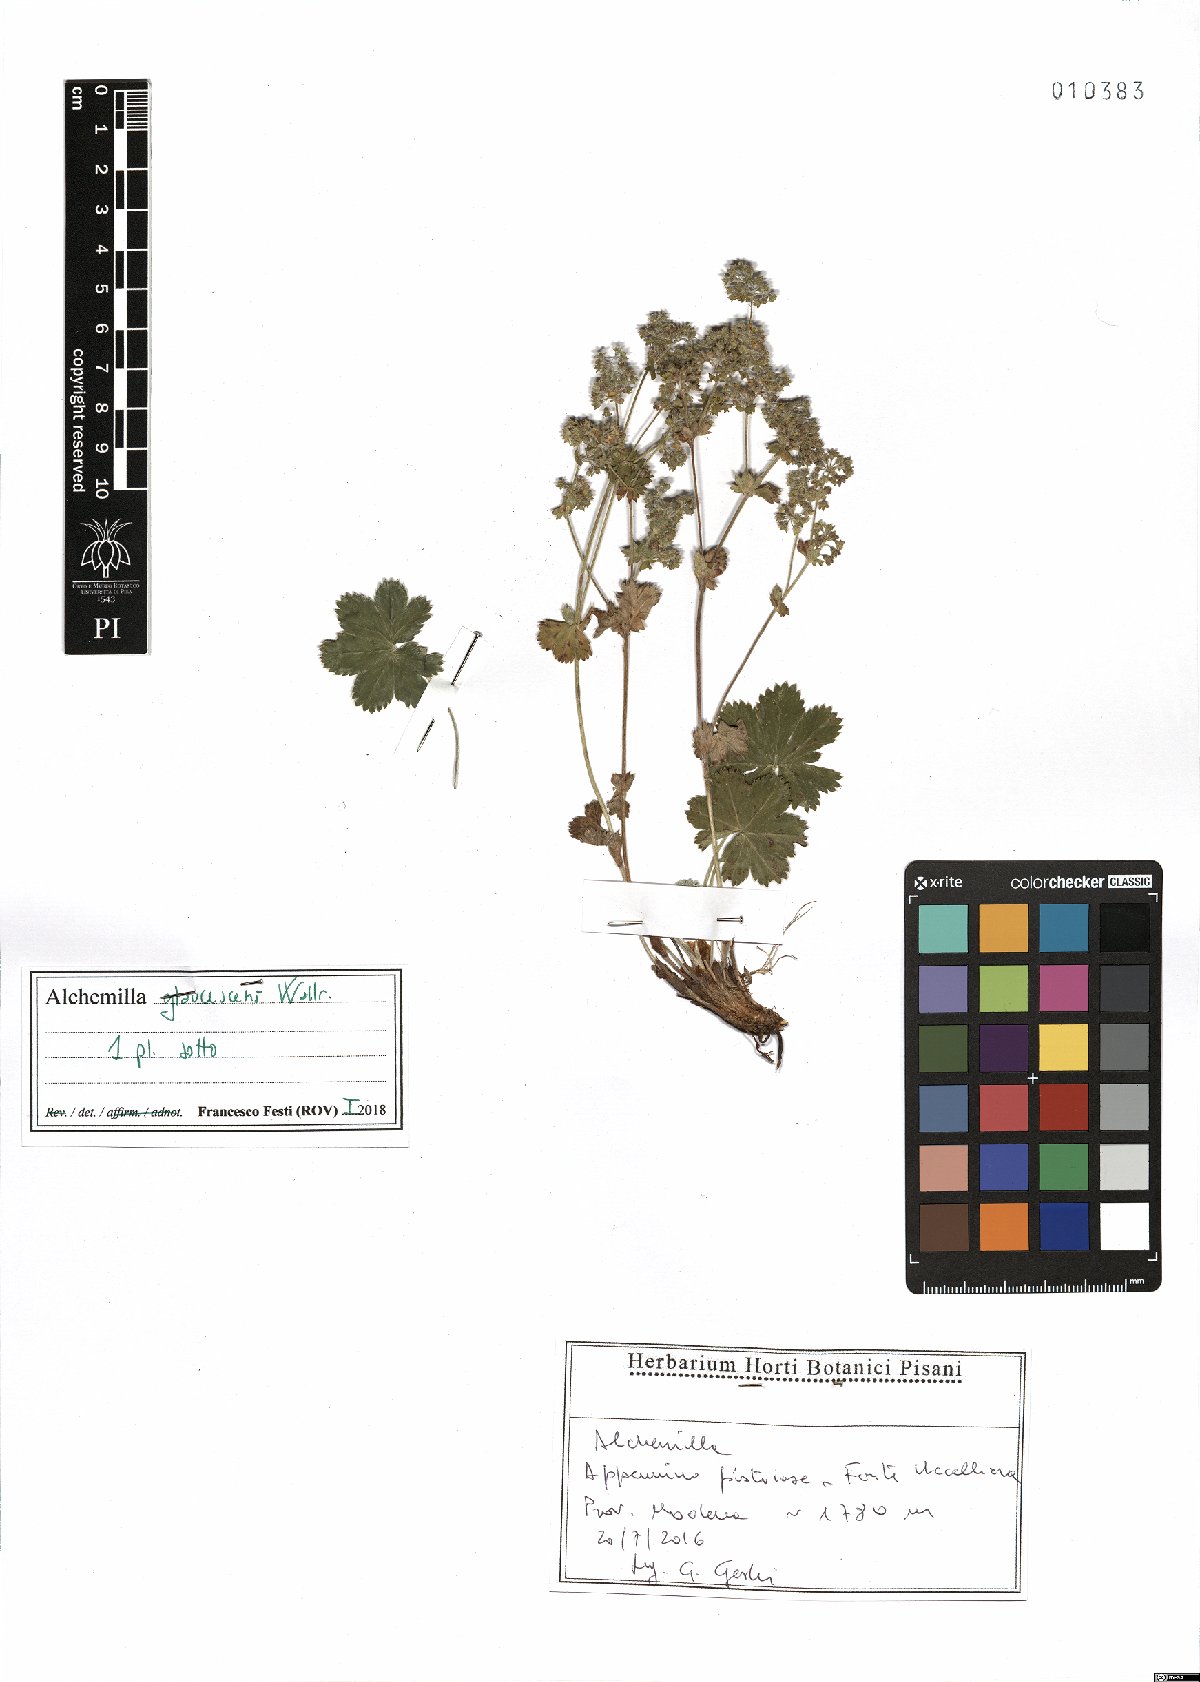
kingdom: Plantae
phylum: Tracheophyta
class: Magnoliopsida
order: Rosales
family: Rosaceae
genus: Alchemilla
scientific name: Alchemilla glaucescens
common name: Silky lady's mantle
